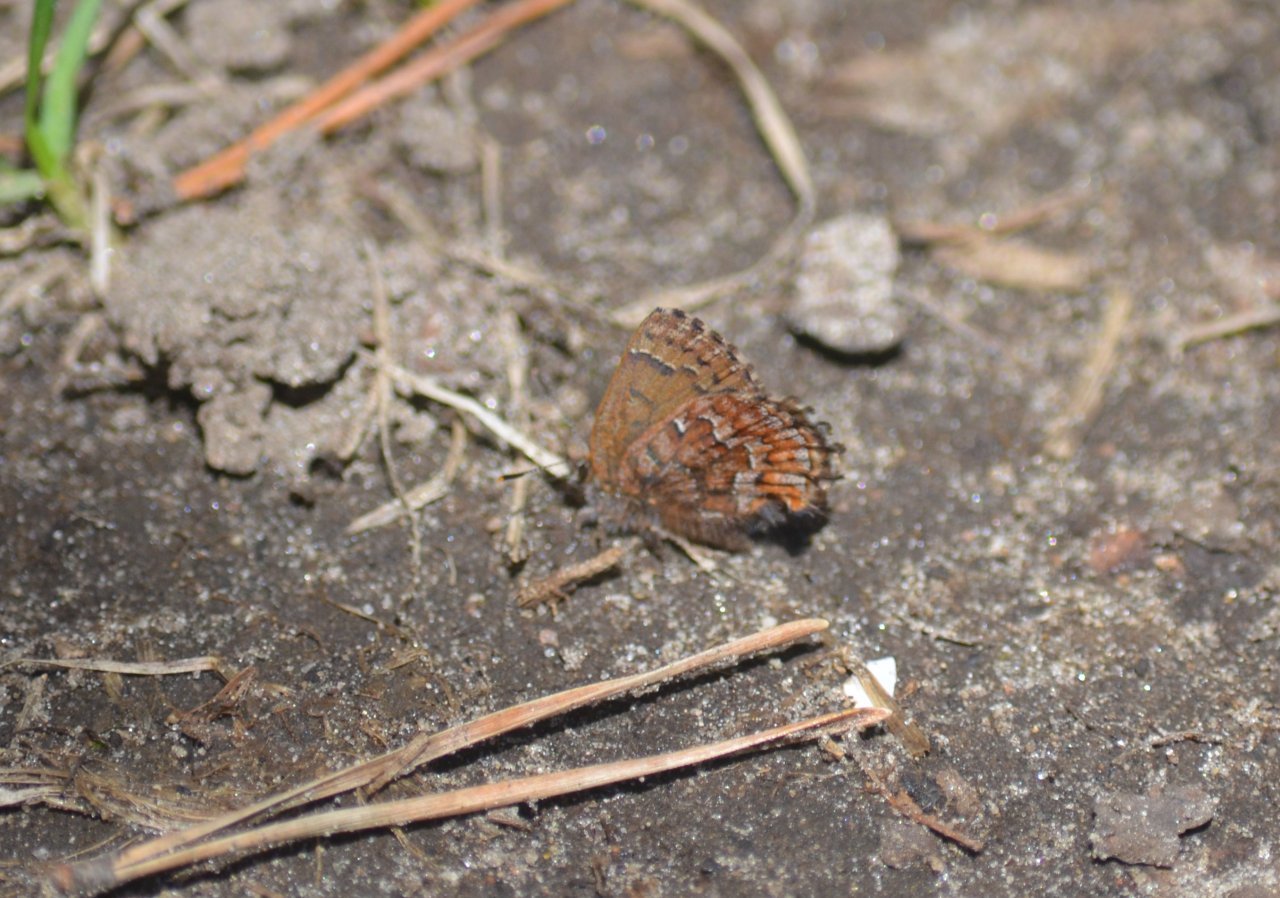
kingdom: Animalia
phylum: Arthropoda
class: Insecta
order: Lepidoptera
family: Lycaenidae
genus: Incisalia
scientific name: Incisalia niphon
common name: Eastern Pine Elfin
